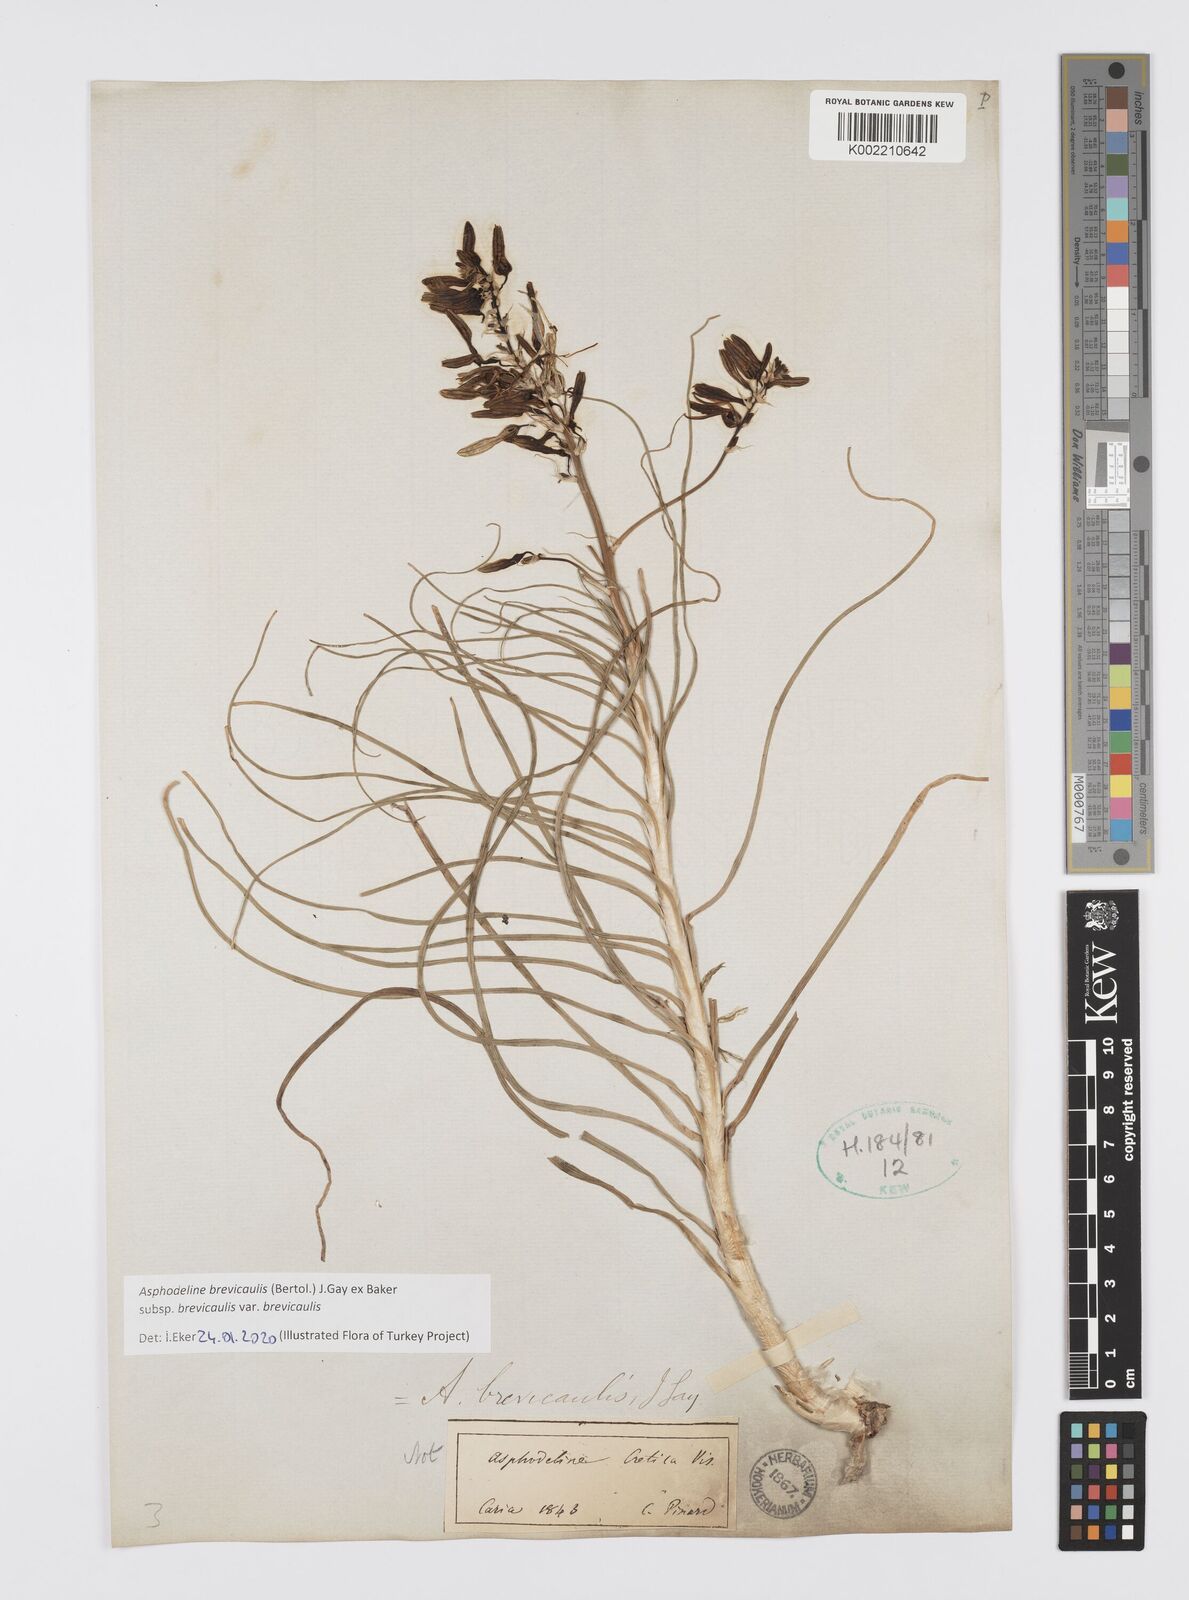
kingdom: Plantae
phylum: Tracheophyta
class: Liliopsida
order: Asparagales
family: Asphodelaceae
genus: Asphodeline
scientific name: Asphodeline brevicaulis
